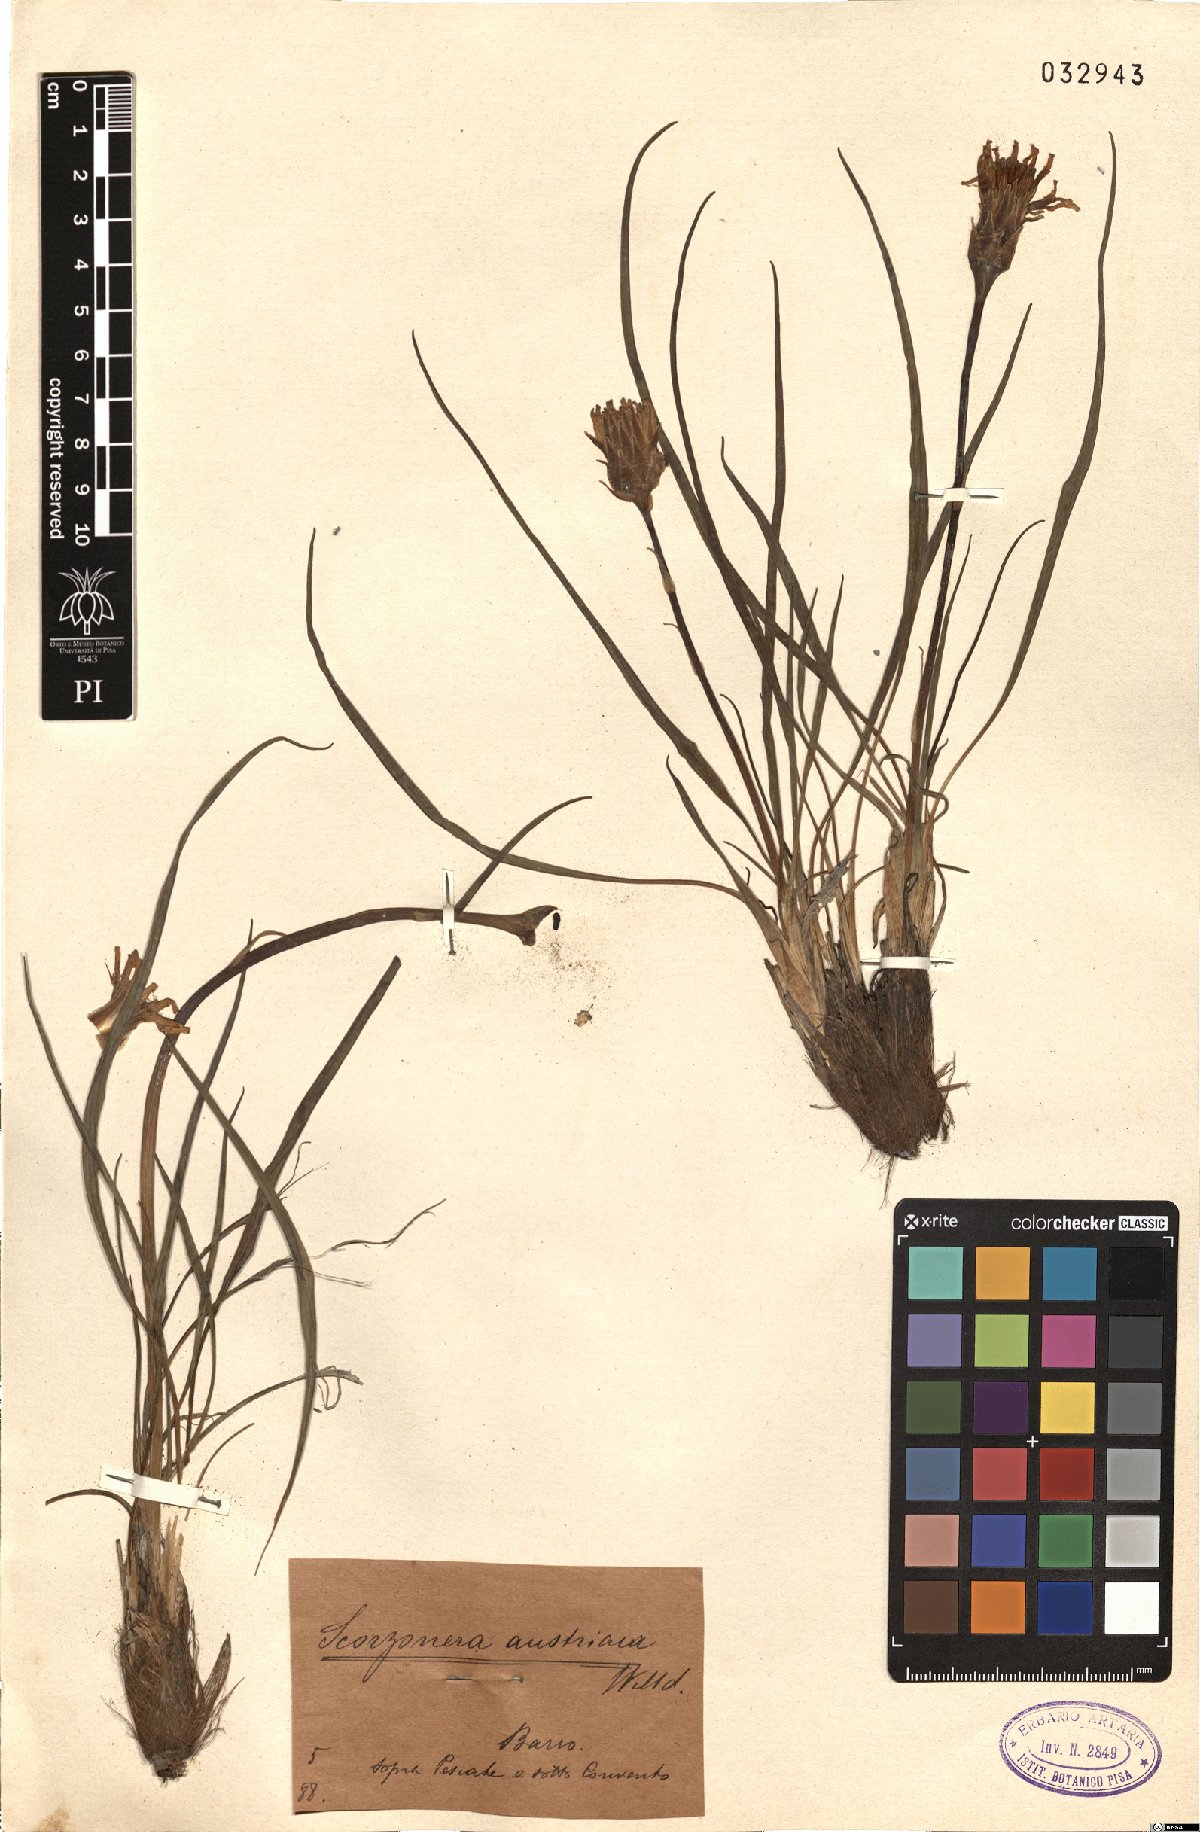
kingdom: Plantae
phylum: Tracheophyta
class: Magnoliopsida
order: Asterales
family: Asteraceae
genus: Takhtajaniantha
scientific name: Takhtajaniantha austriaca
